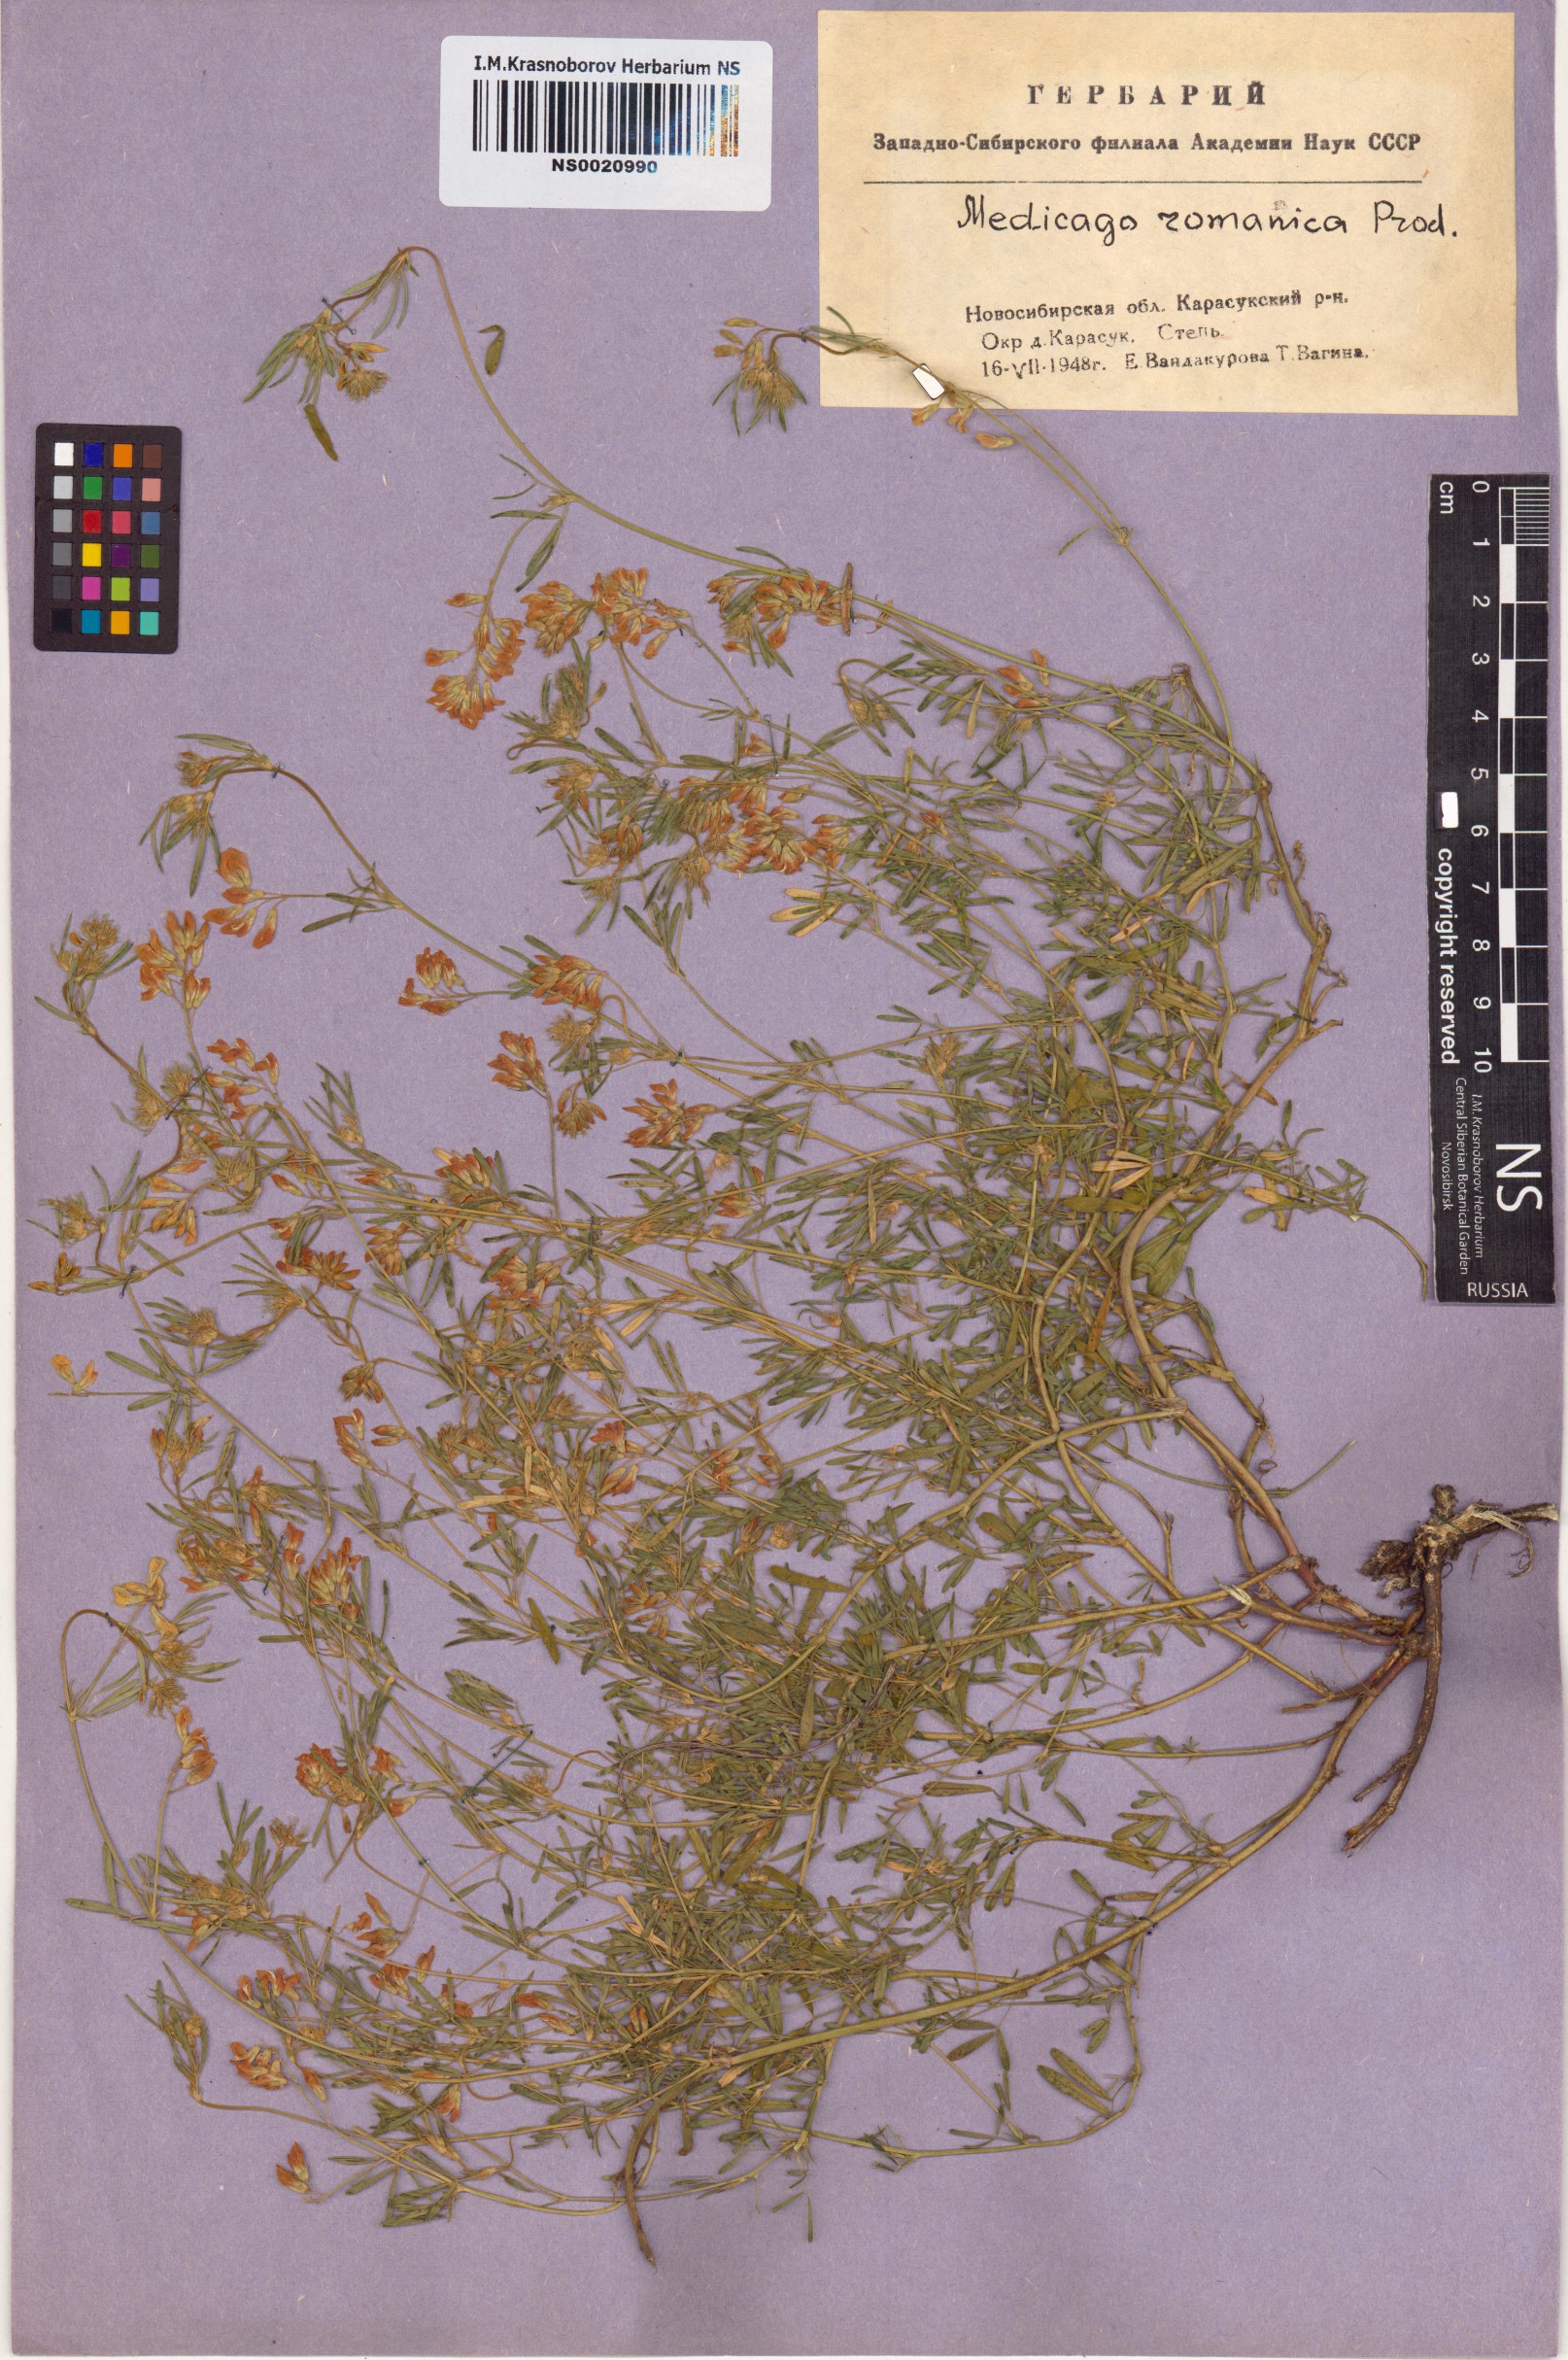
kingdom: Plantae
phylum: Tracheophyta
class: Magnoliopsida
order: Fabales
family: Fabaceae
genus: Medicago
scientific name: Medicago falcata
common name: Sickle medick
